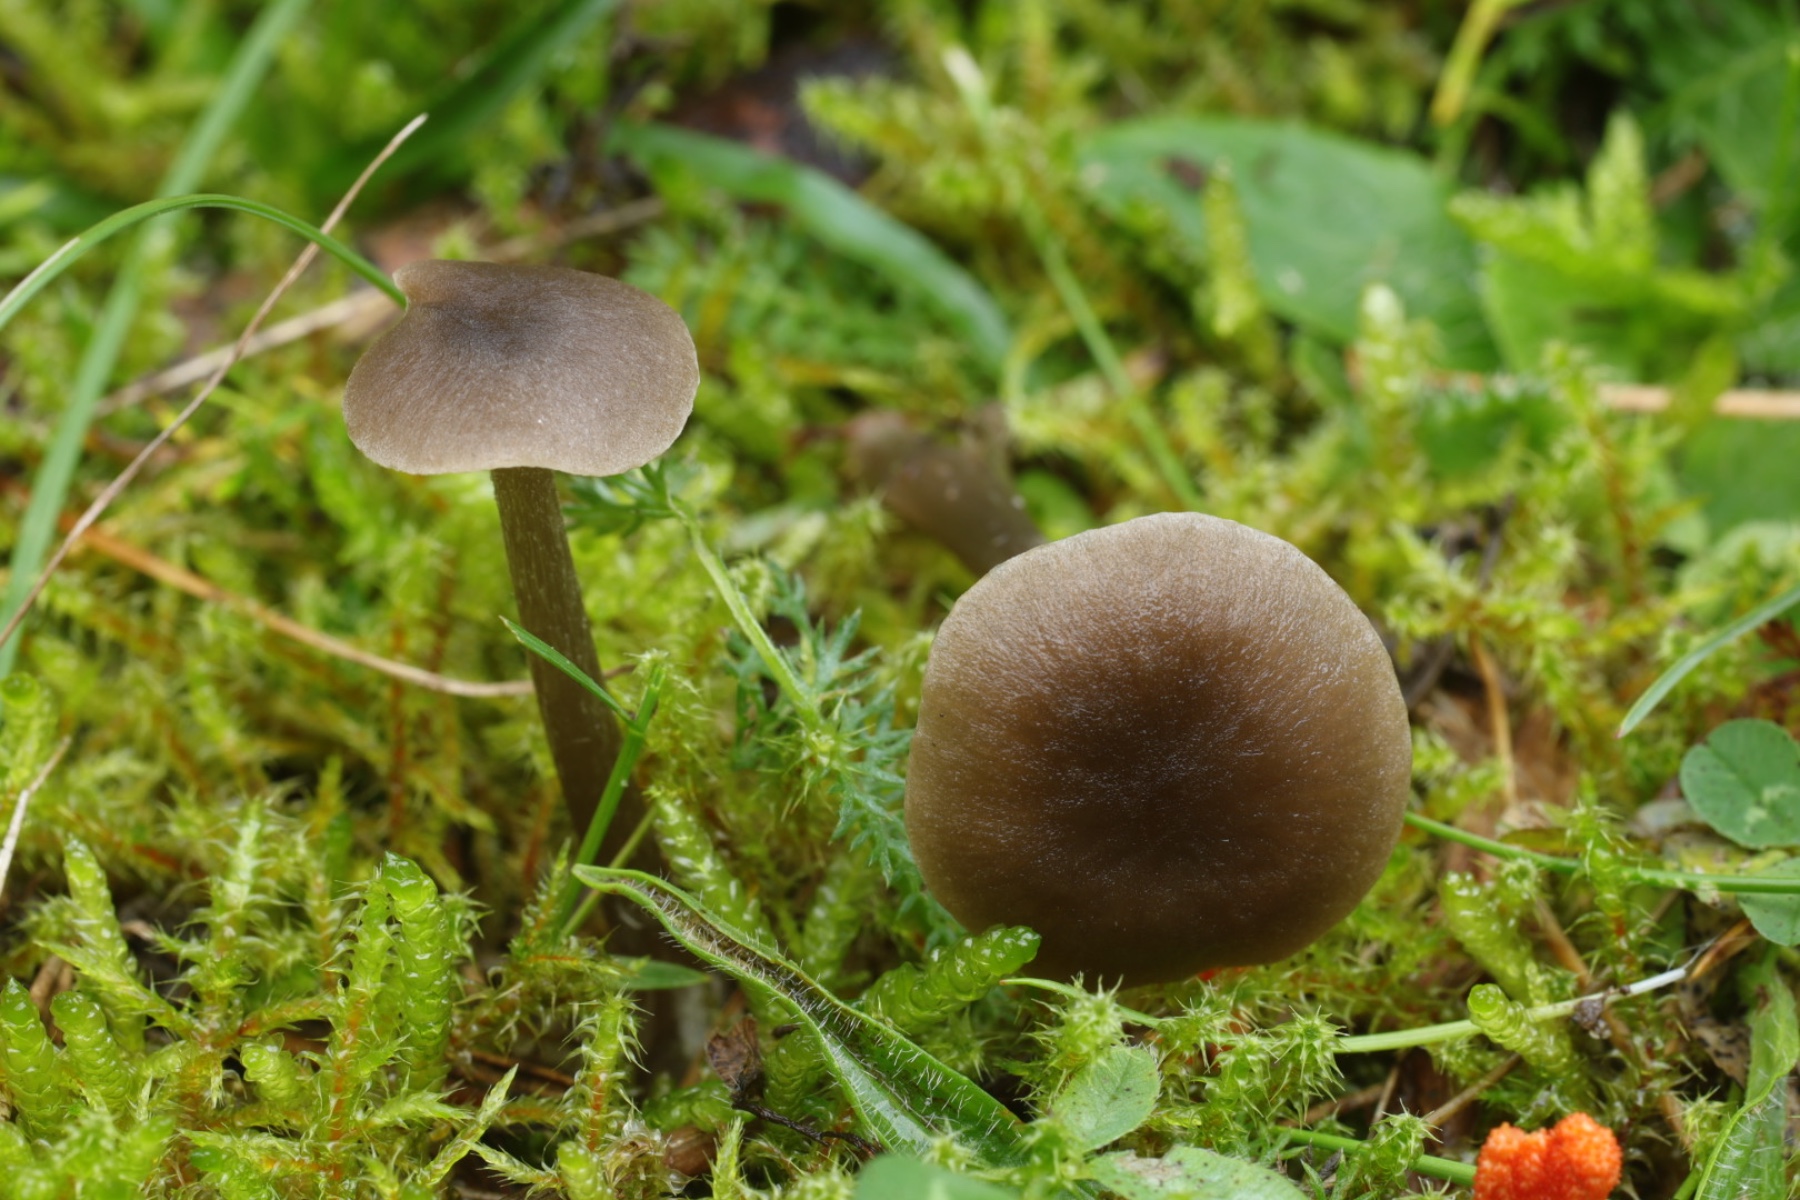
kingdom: Fungi
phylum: Basidiomycota
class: Agaricomycetes
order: Agaricales
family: Entolomataceae
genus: Entoloma
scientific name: Entoloma
